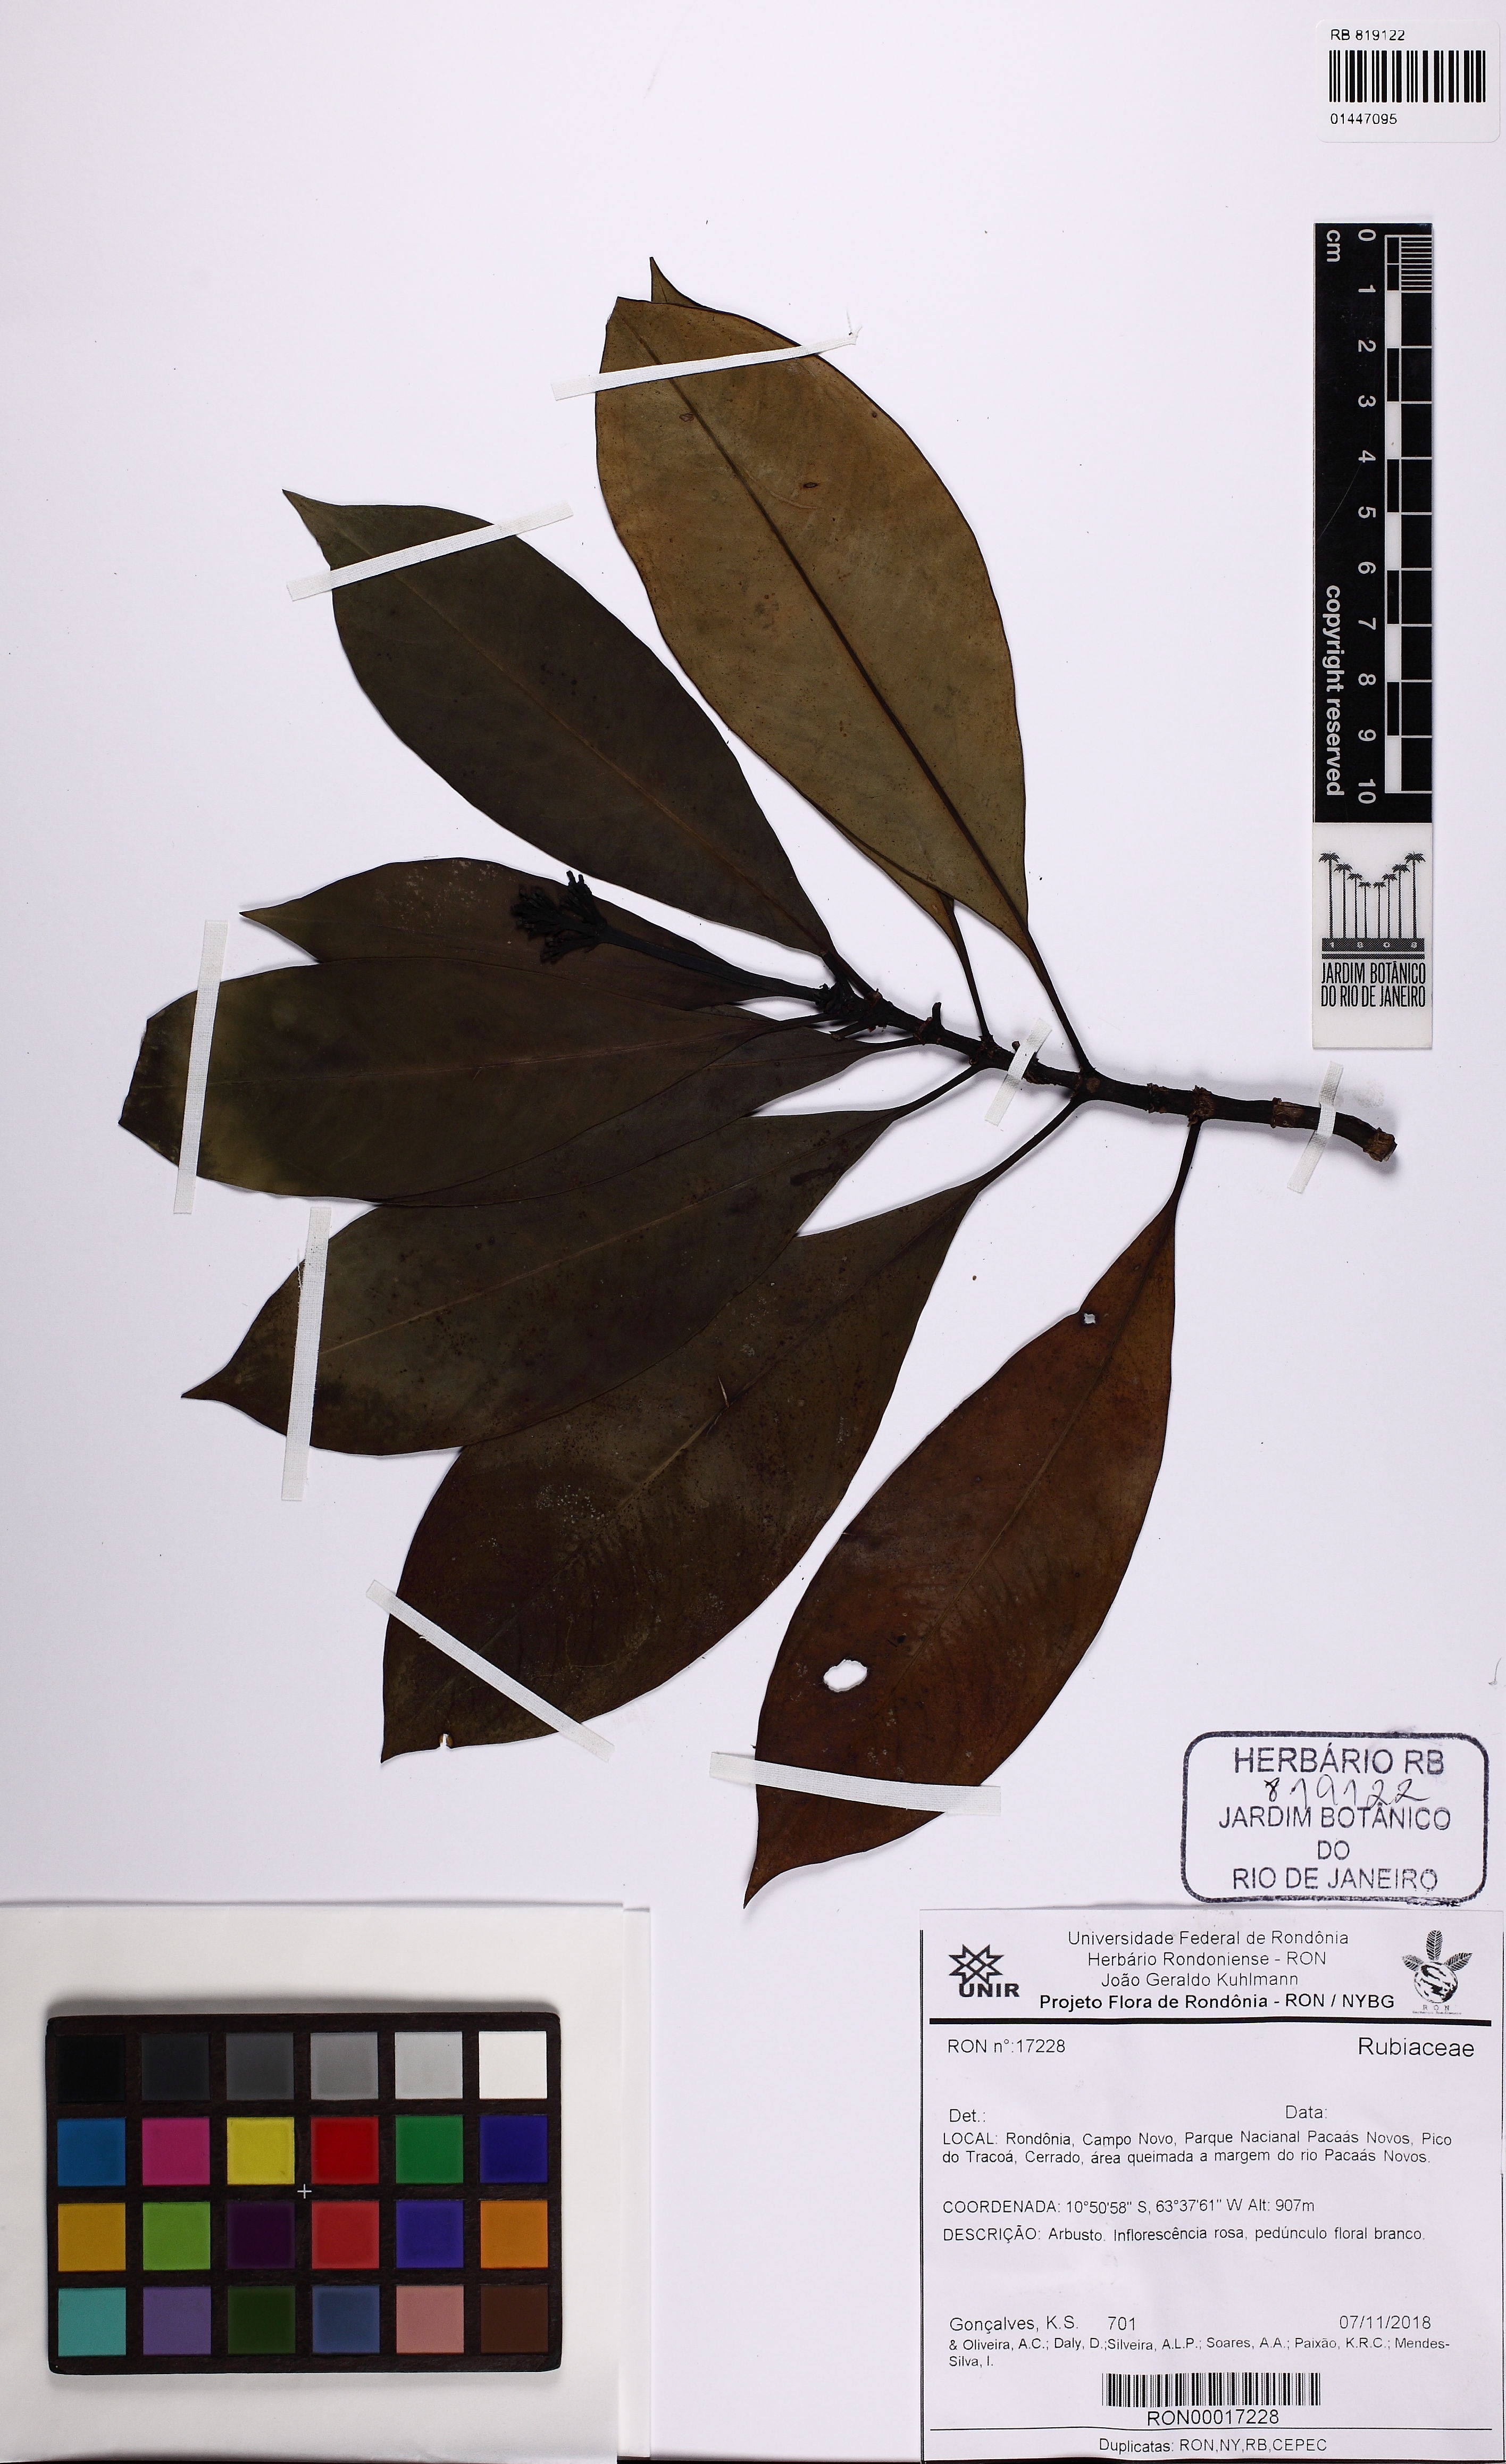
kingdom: Plantae
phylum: Tracheophyta
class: Magnoliopsida
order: Gentianales
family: Rubiaceae
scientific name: Rubiaceae
